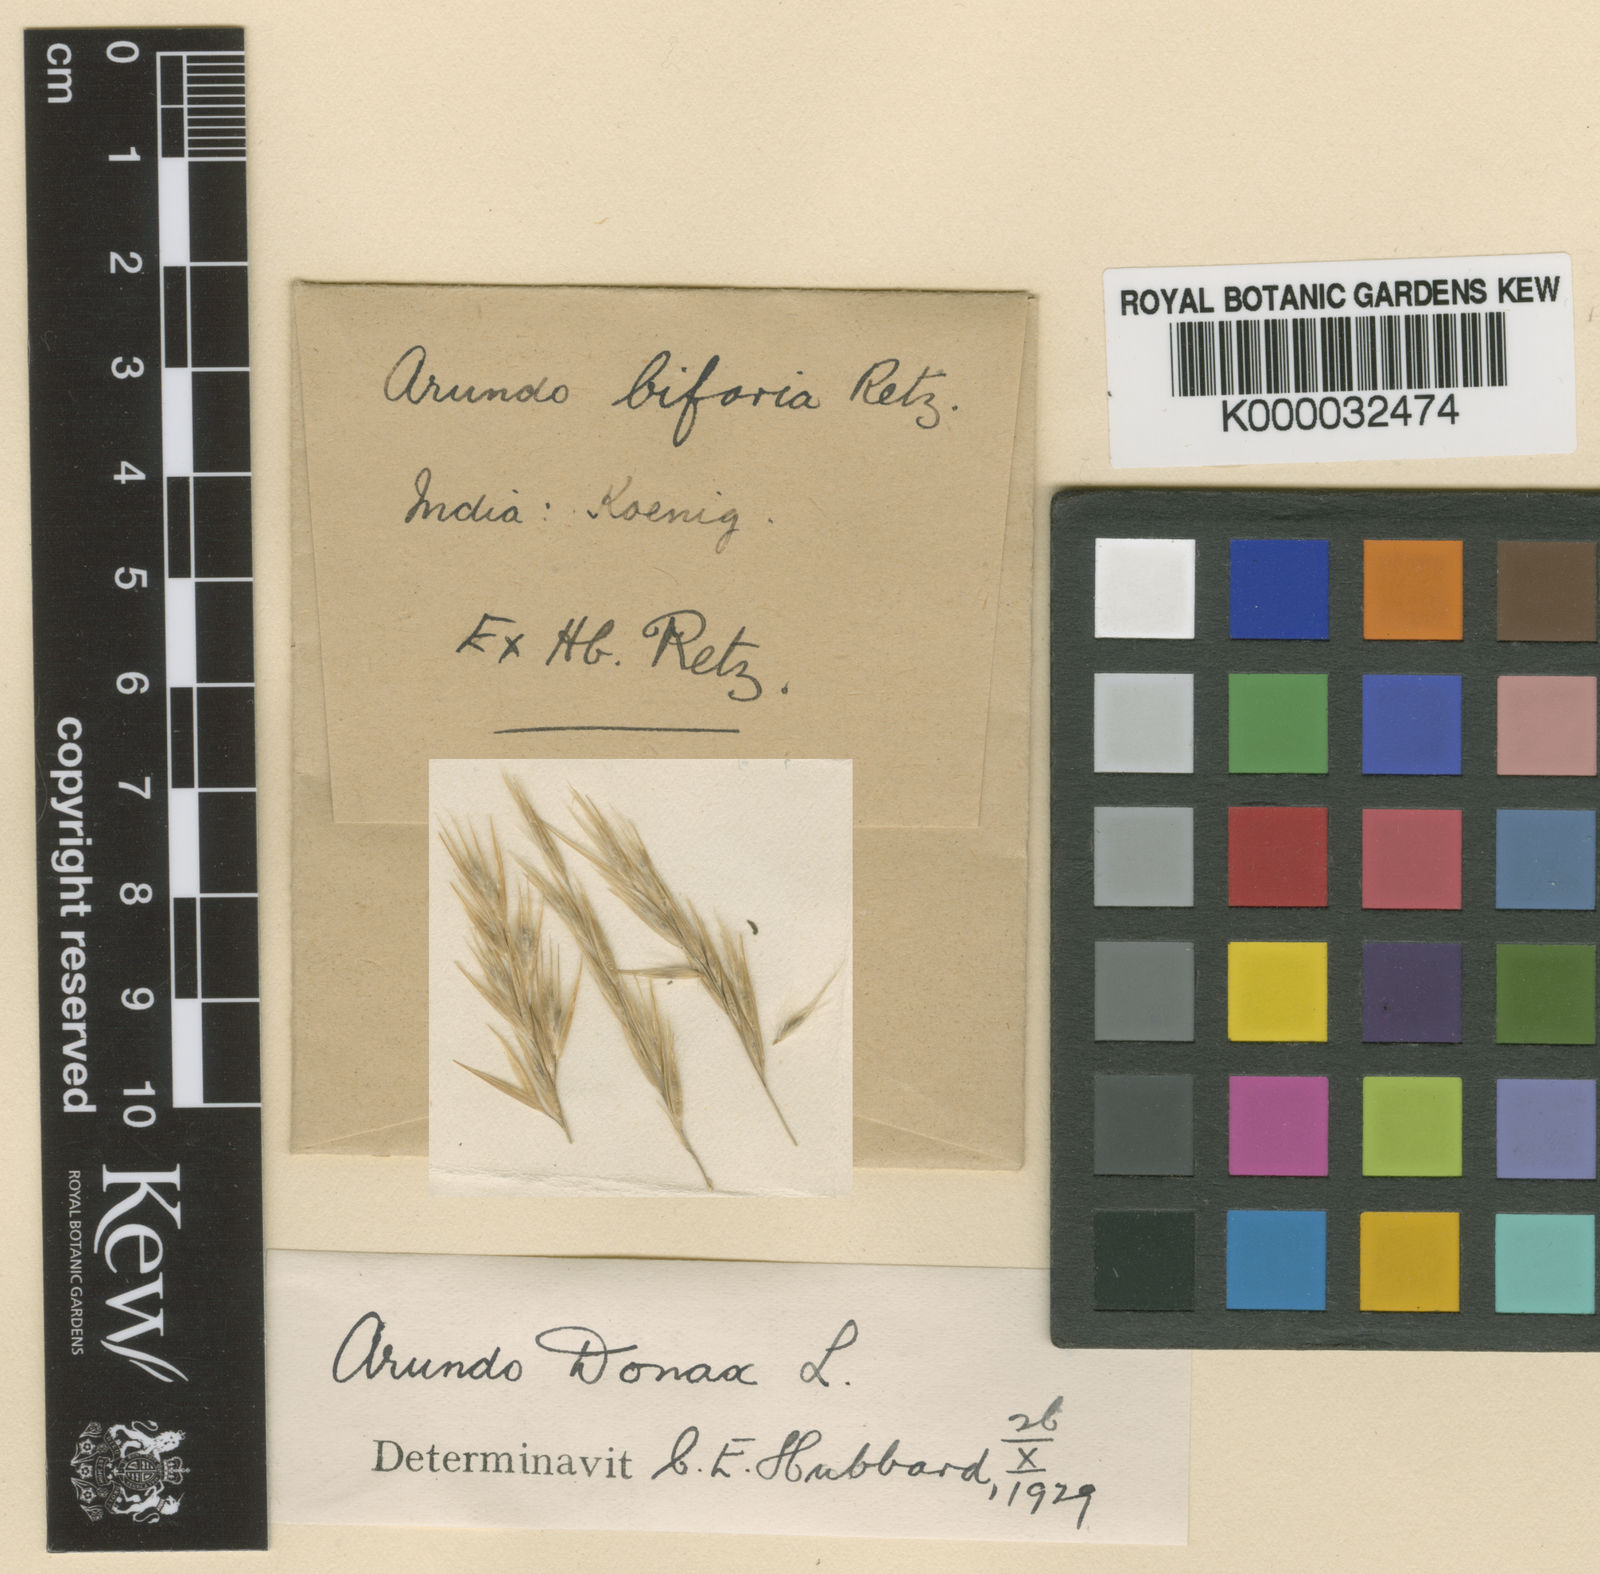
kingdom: Plantae
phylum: Tracheophyta
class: Liliopsida
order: Poales
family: Poaceae
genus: Arundo
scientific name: Arundo donax
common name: Giant reed
